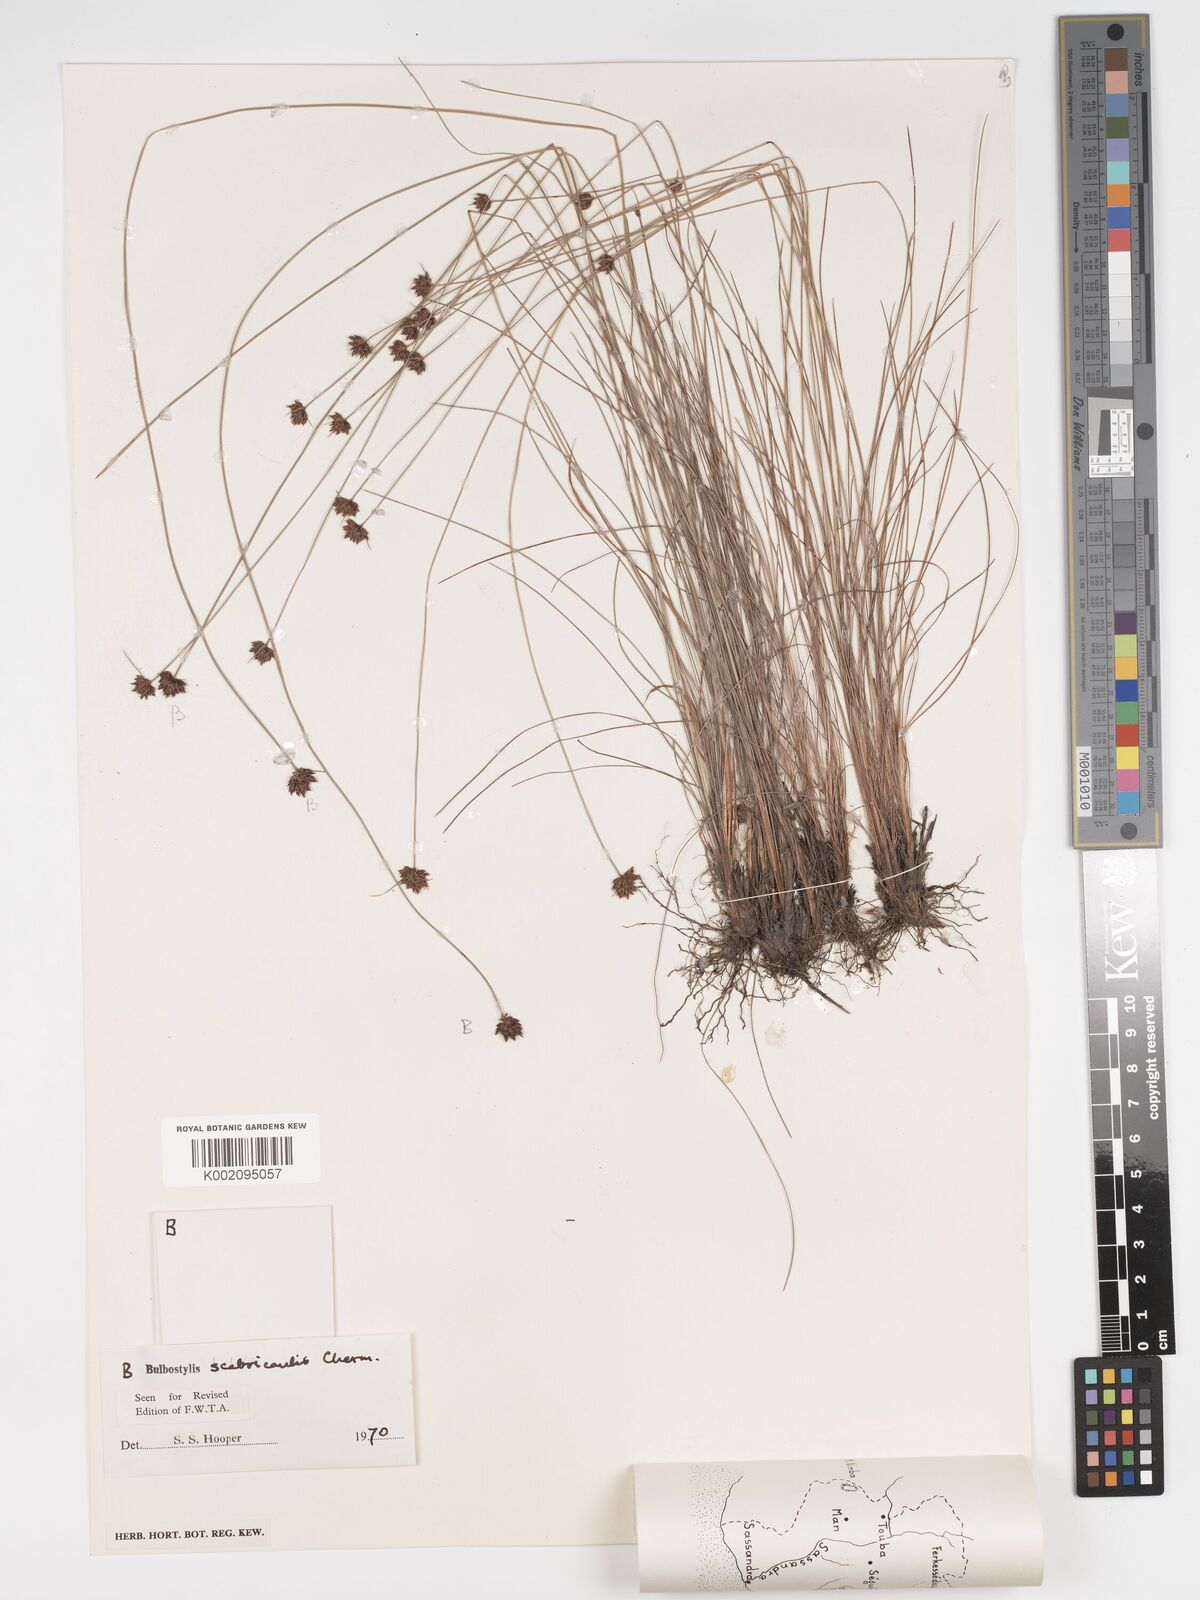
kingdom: Plantae
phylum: Tracheophyta
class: Liliopsida
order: Poales
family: Cyperaceae
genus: Bulbostylis
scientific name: Bulbostylis scabricaulis
